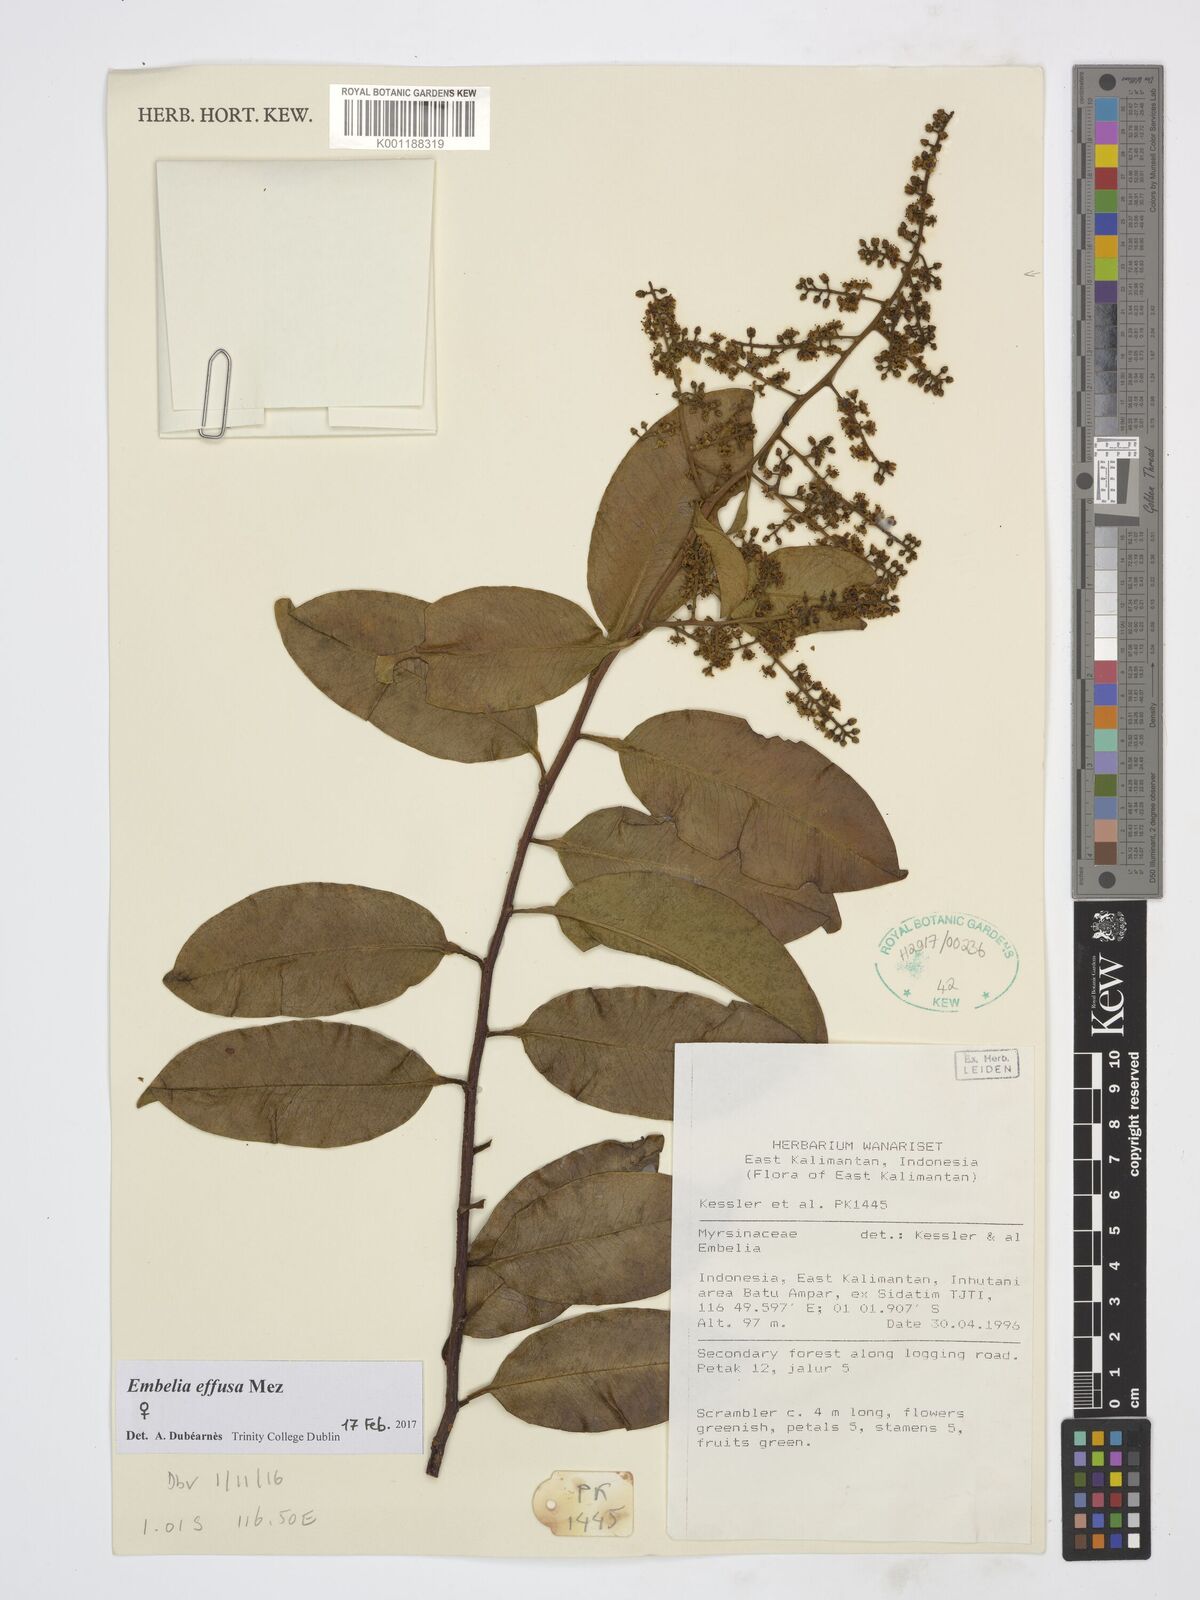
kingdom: Plantae
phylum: Tracheophyta
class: Magnoliopsida
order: Ericales
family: Primulaceae
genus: Embelia
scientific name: Embelia effusa
